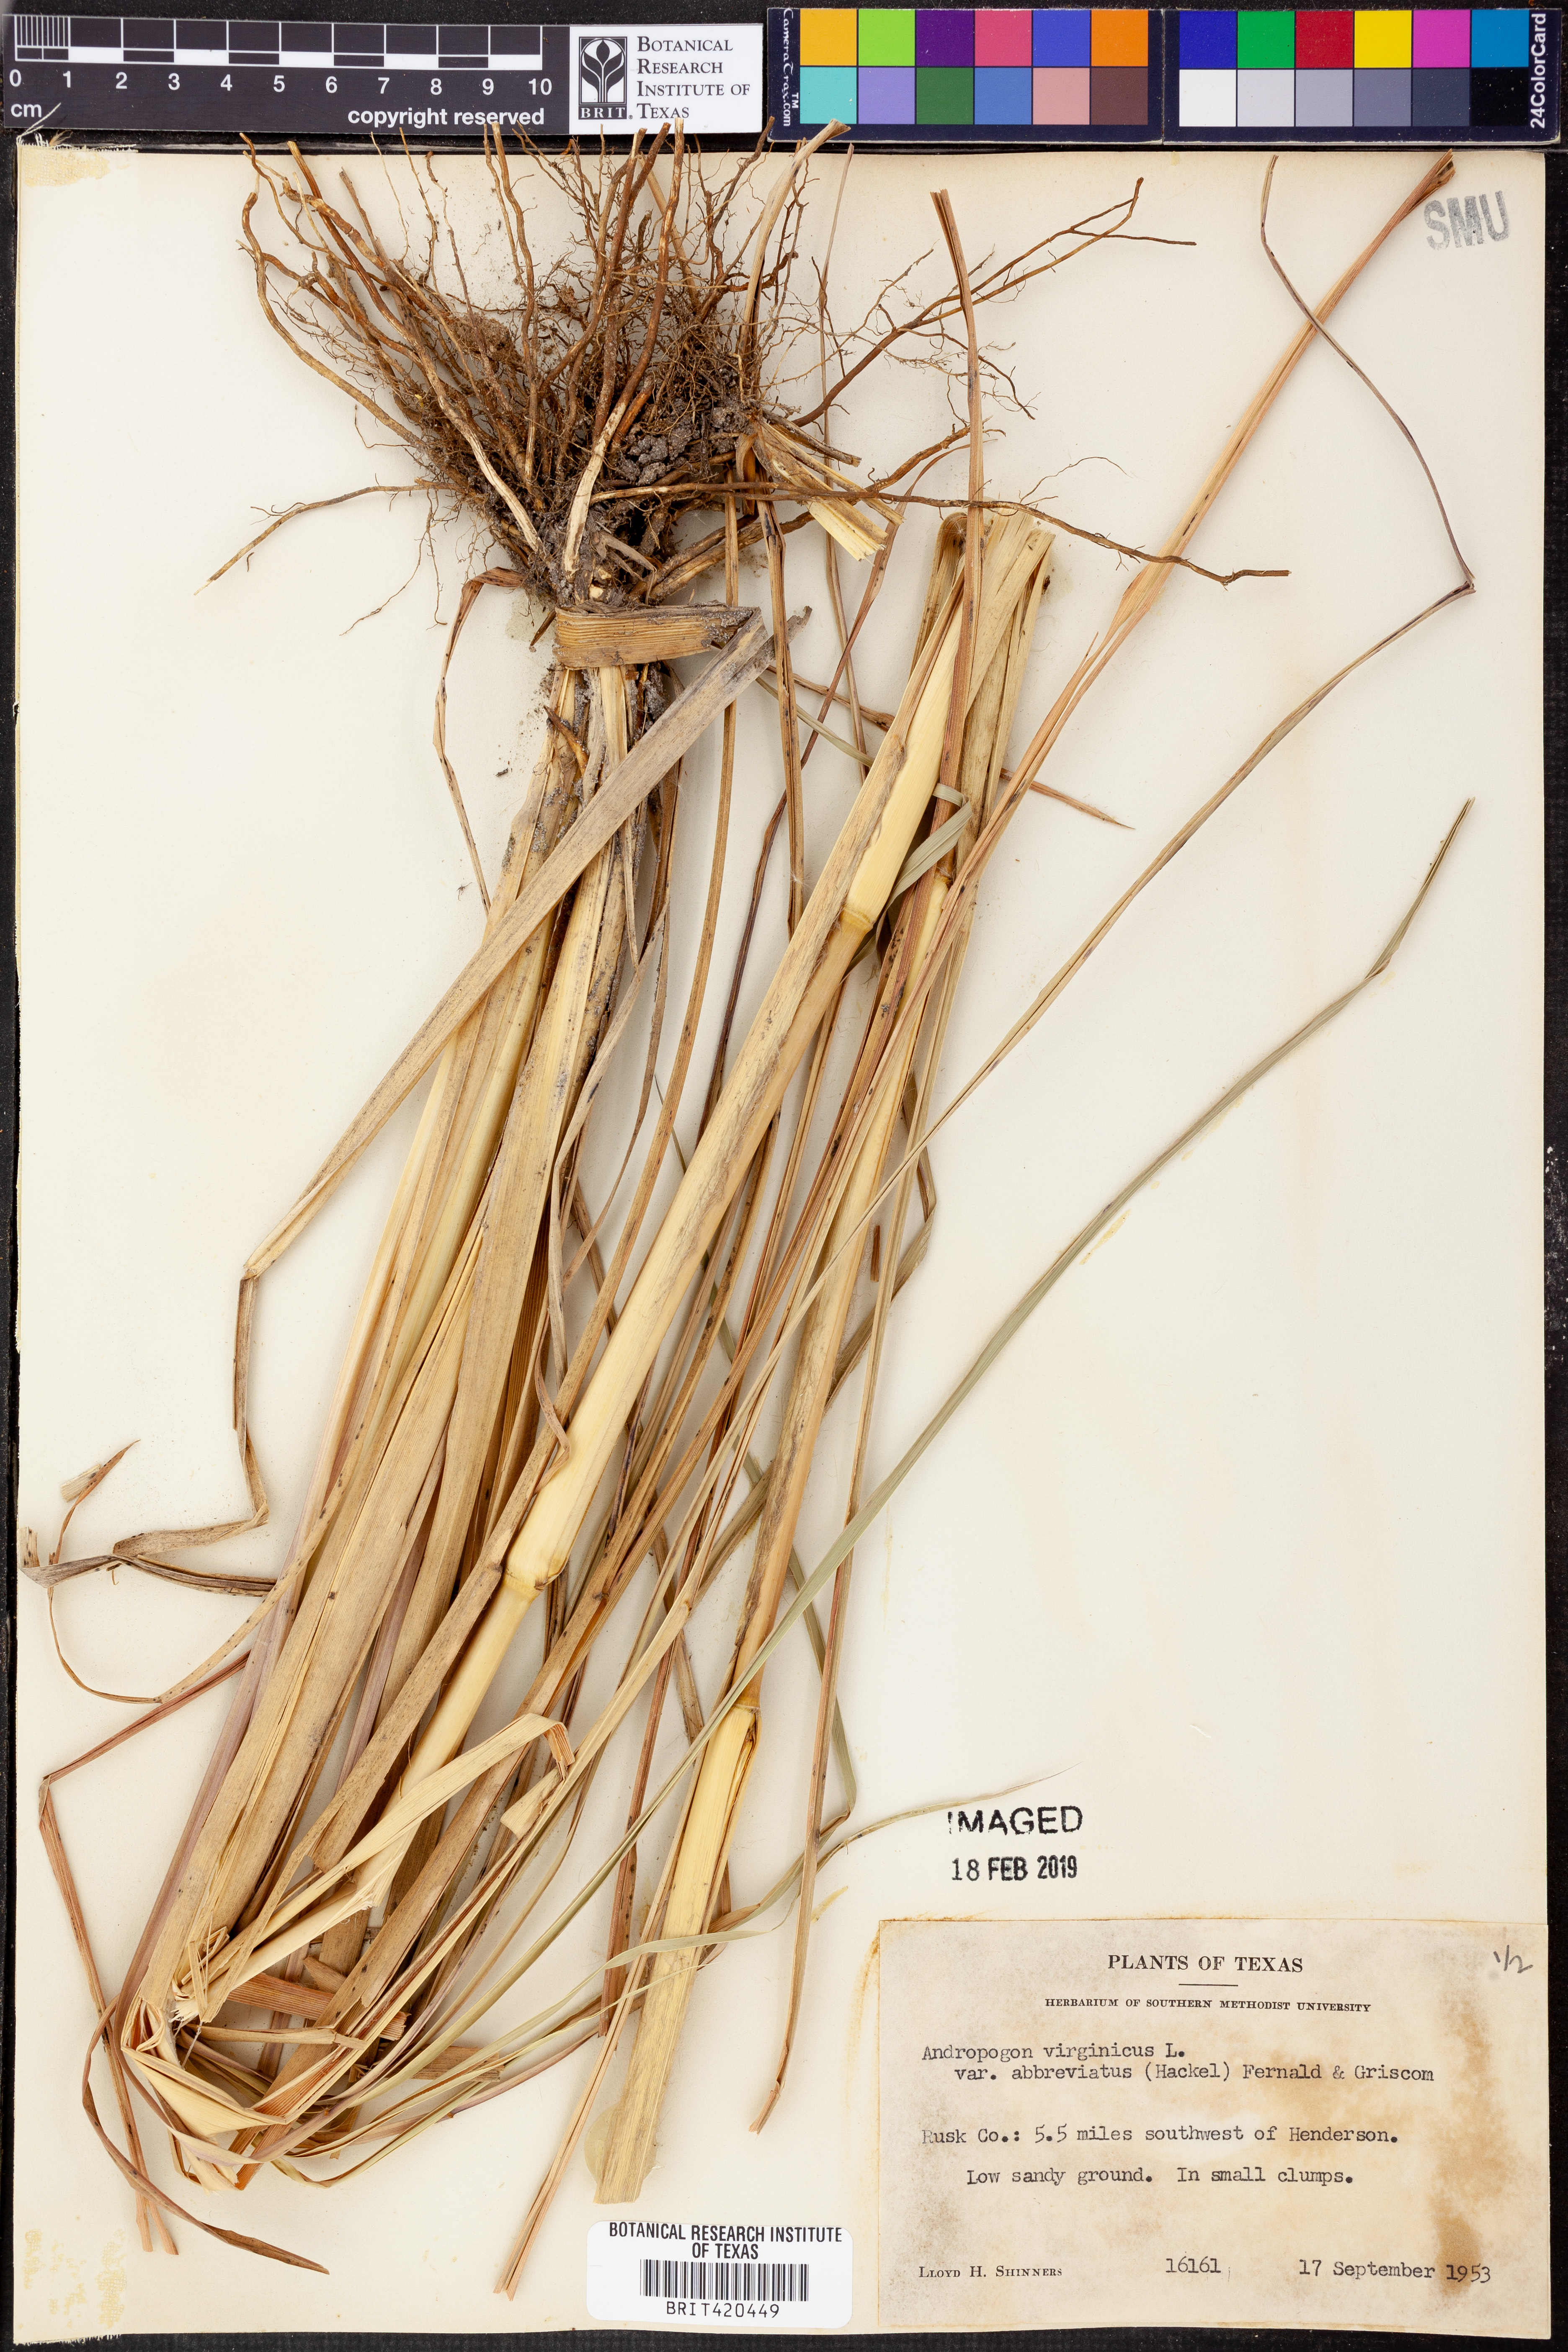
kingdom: Plantae
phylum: Tracheophyta
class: Liliopsida
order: Poales
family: Poaceae
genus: Andropogon
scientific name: Andropogon glomeratus
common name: Bushy beard grass
